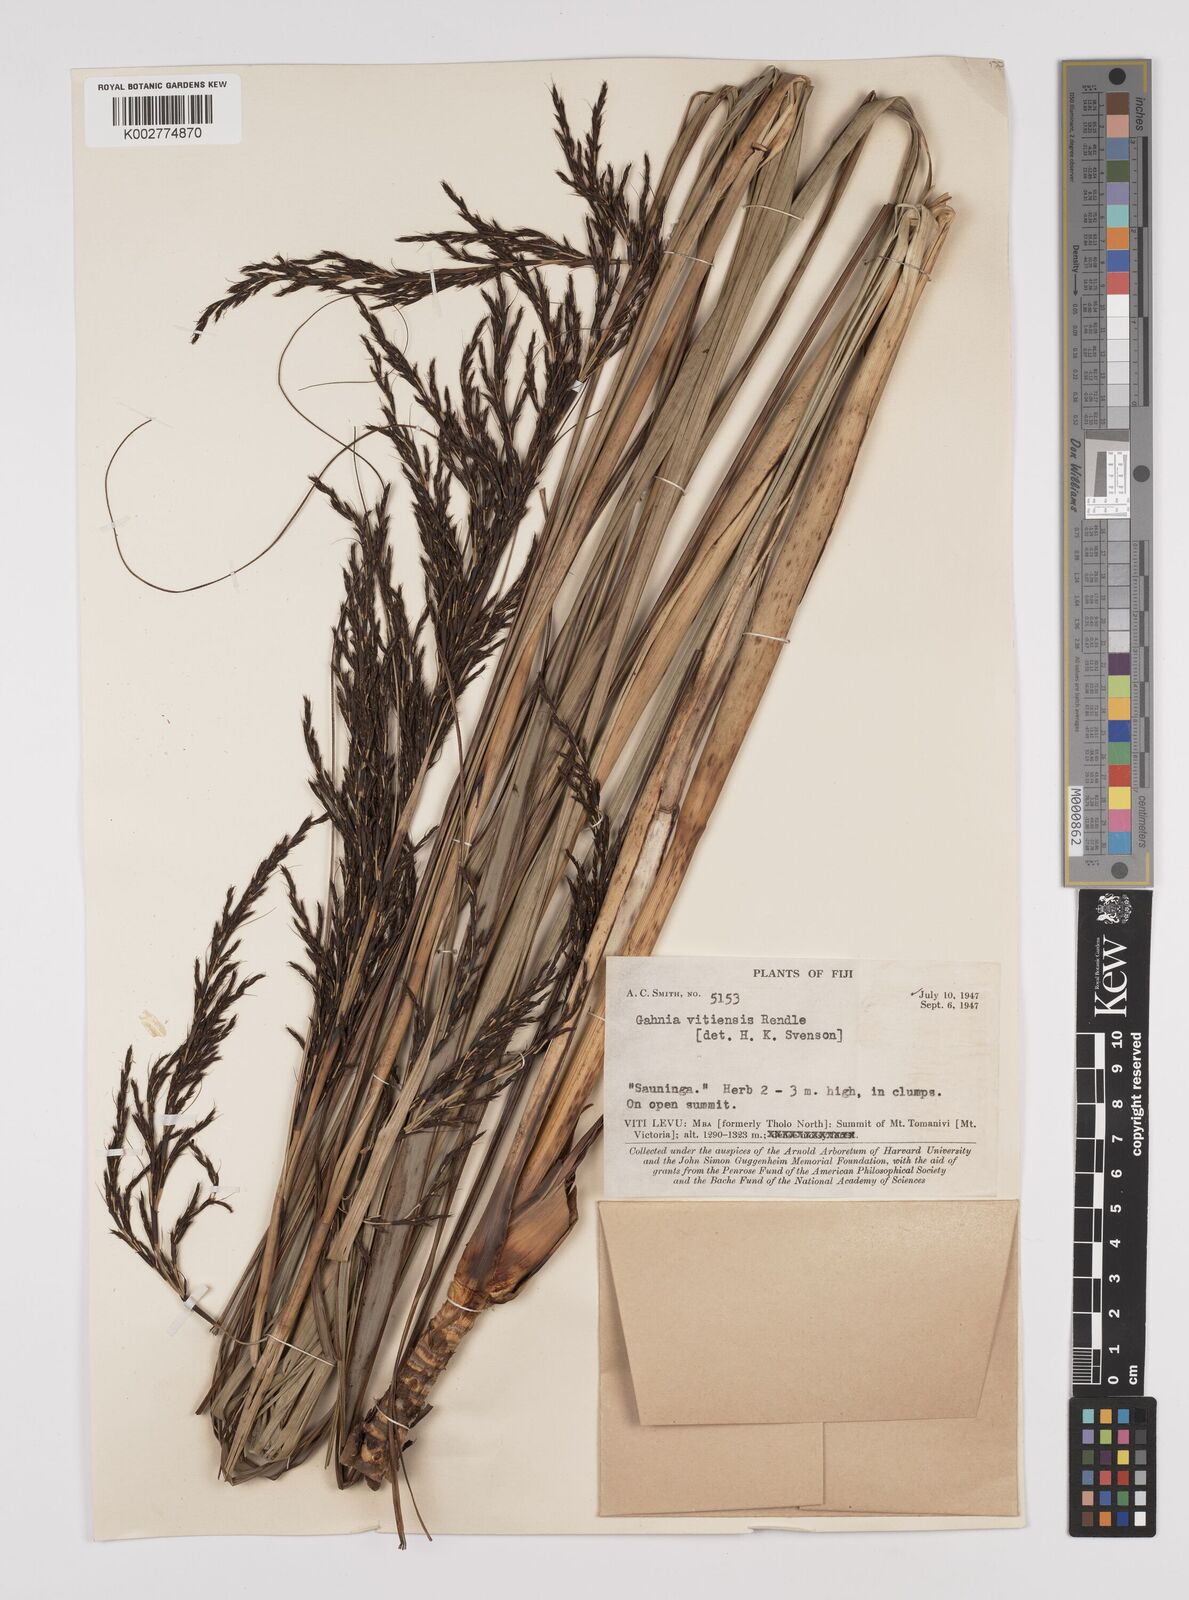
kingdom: Plantae
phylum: Tracheophyta
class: Liliopsida
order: Poales
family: Cyperaceae
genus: Gahnia
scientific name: Gahnia vitiensis
